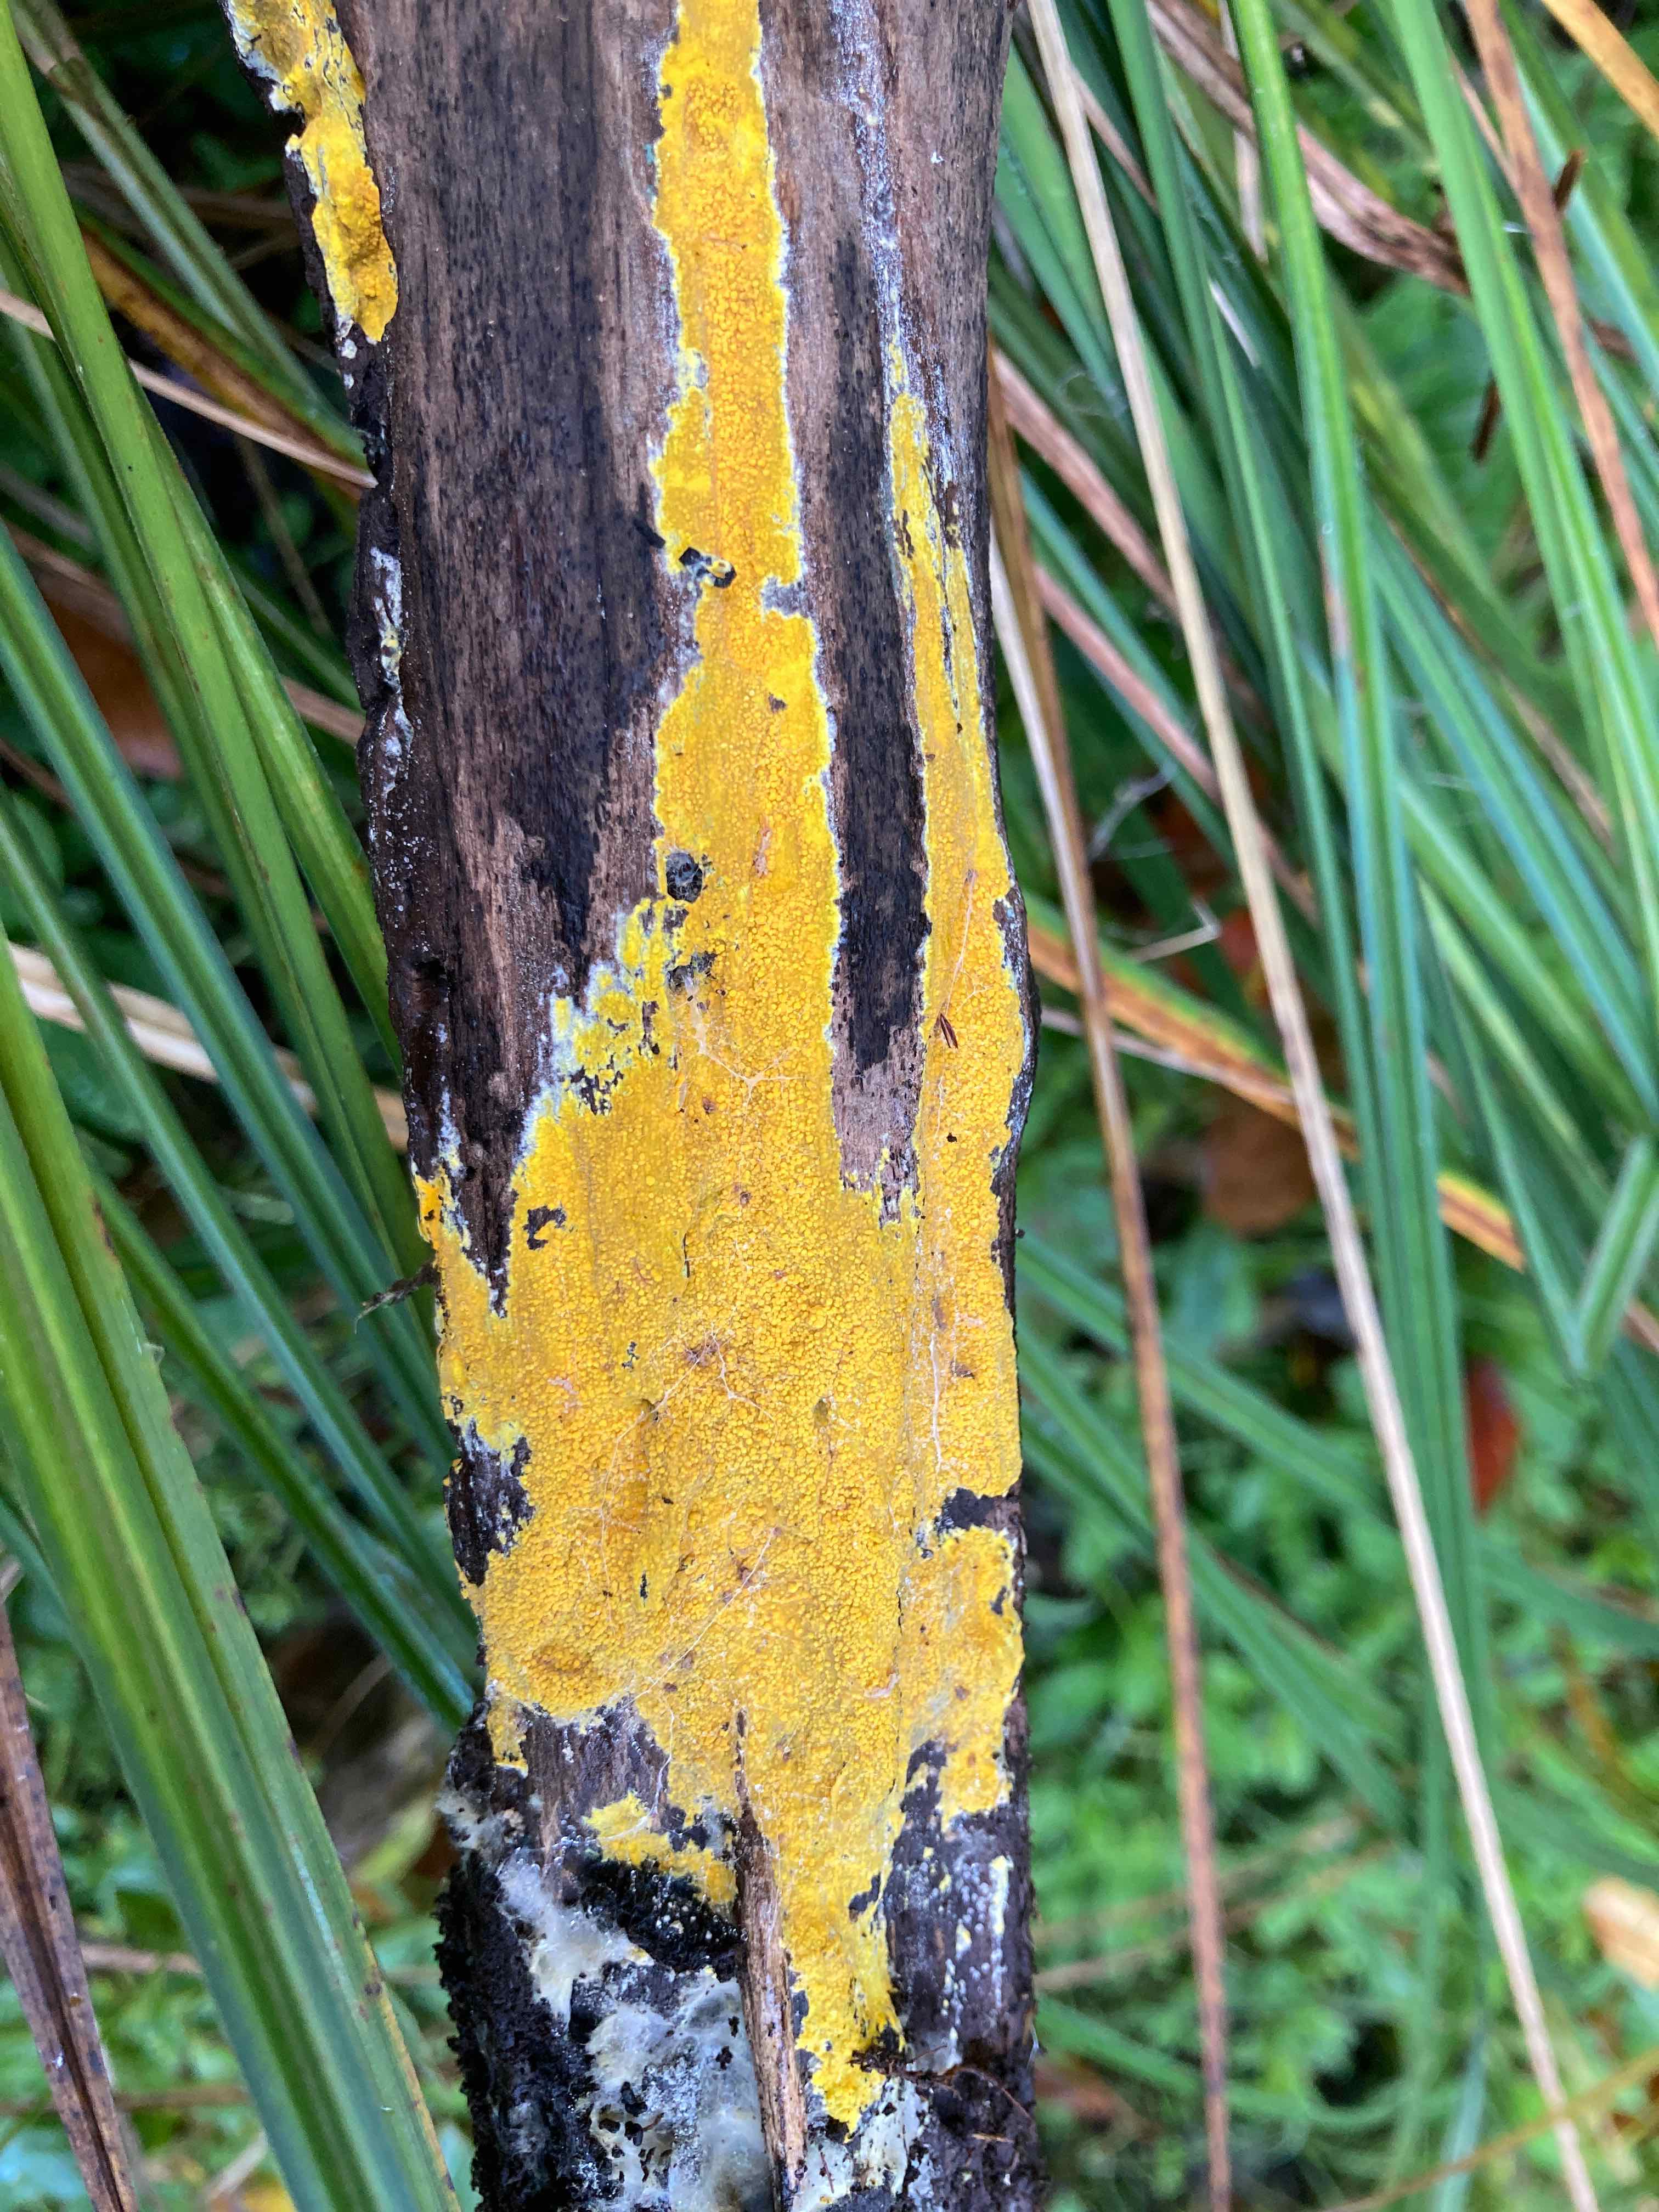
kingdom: Fungi
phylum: Basidiomycota
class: Agaricomycetes
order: Polyporales
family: Meruliaceae
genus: Phlebiodontia
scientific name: Phlebiodontia subochracea
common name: svovl-åresvamp
